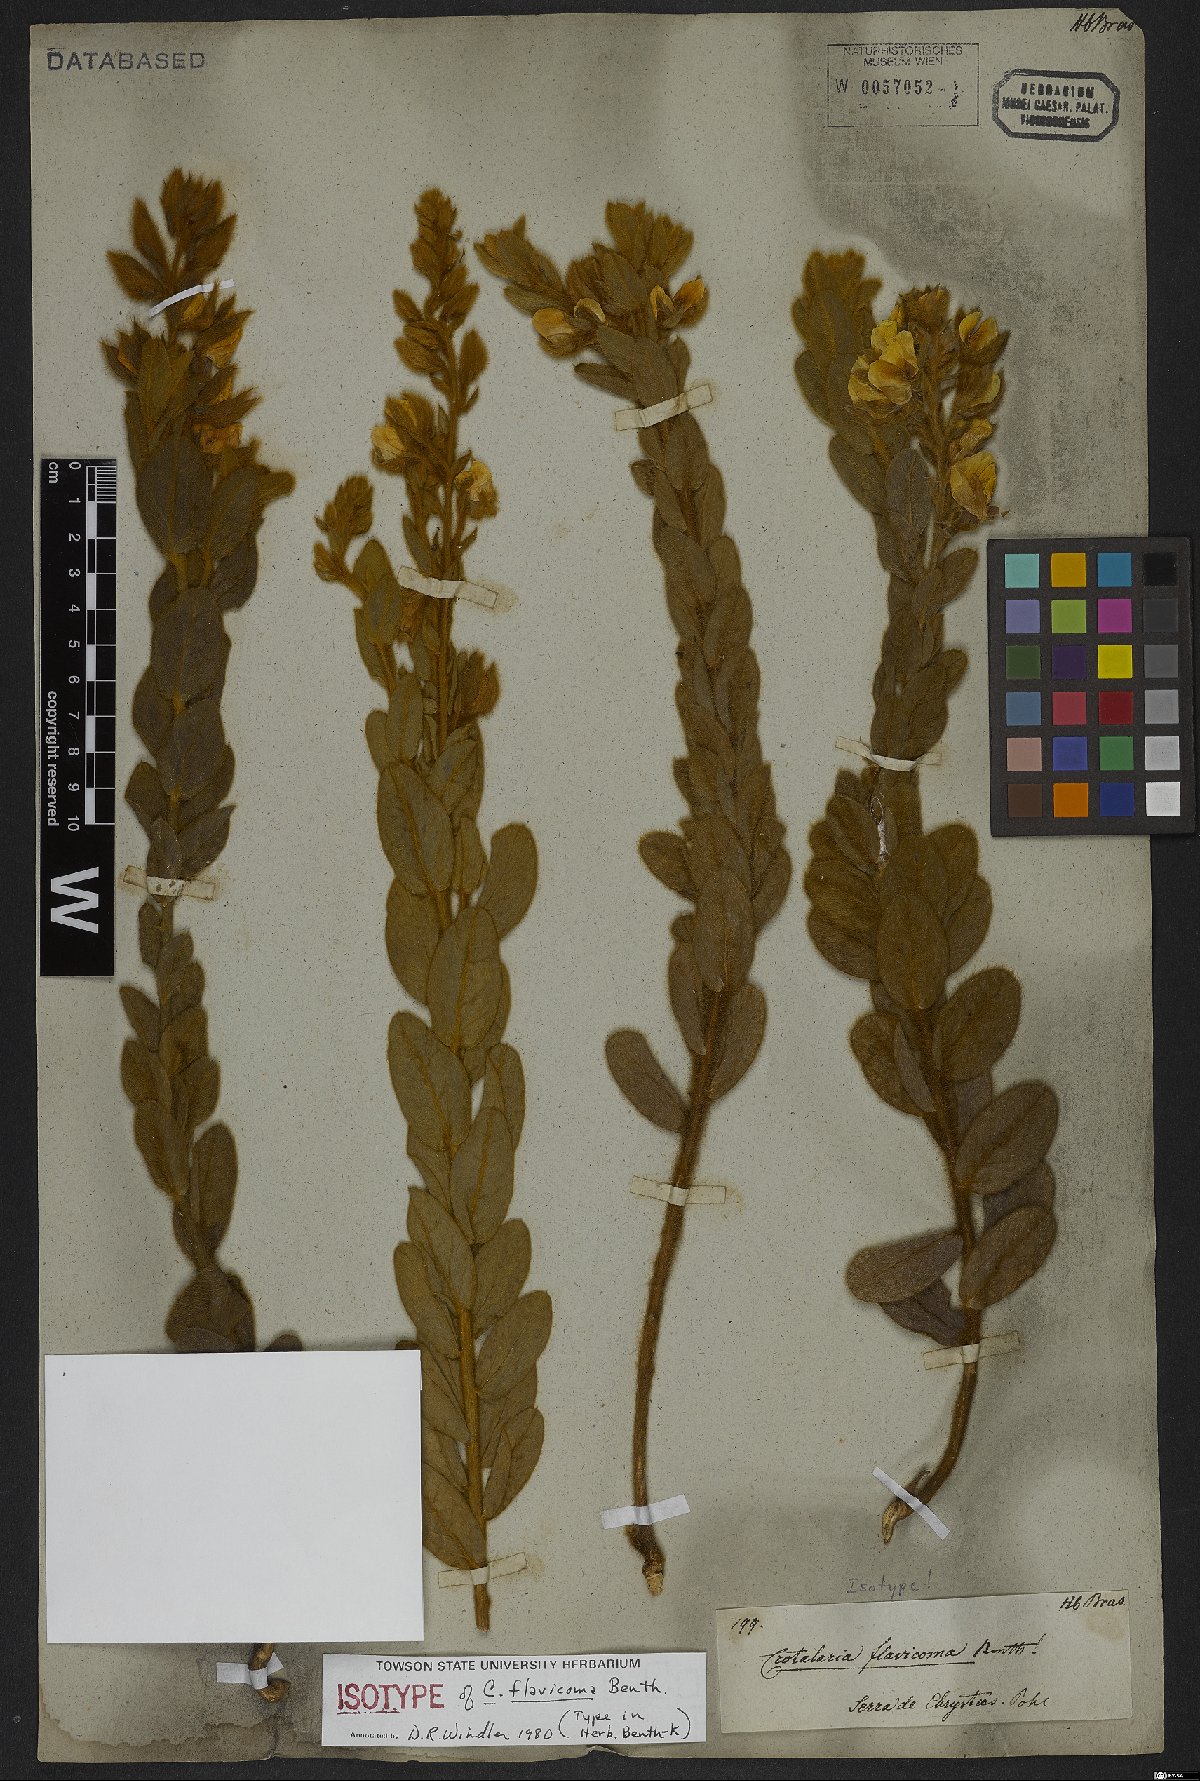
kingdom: Plantae
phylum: Tracheophyta
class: Magnoliopsida
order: Fabales
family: Fabaceae
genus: Crotalaria
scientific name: Crotalaria flavicoma
